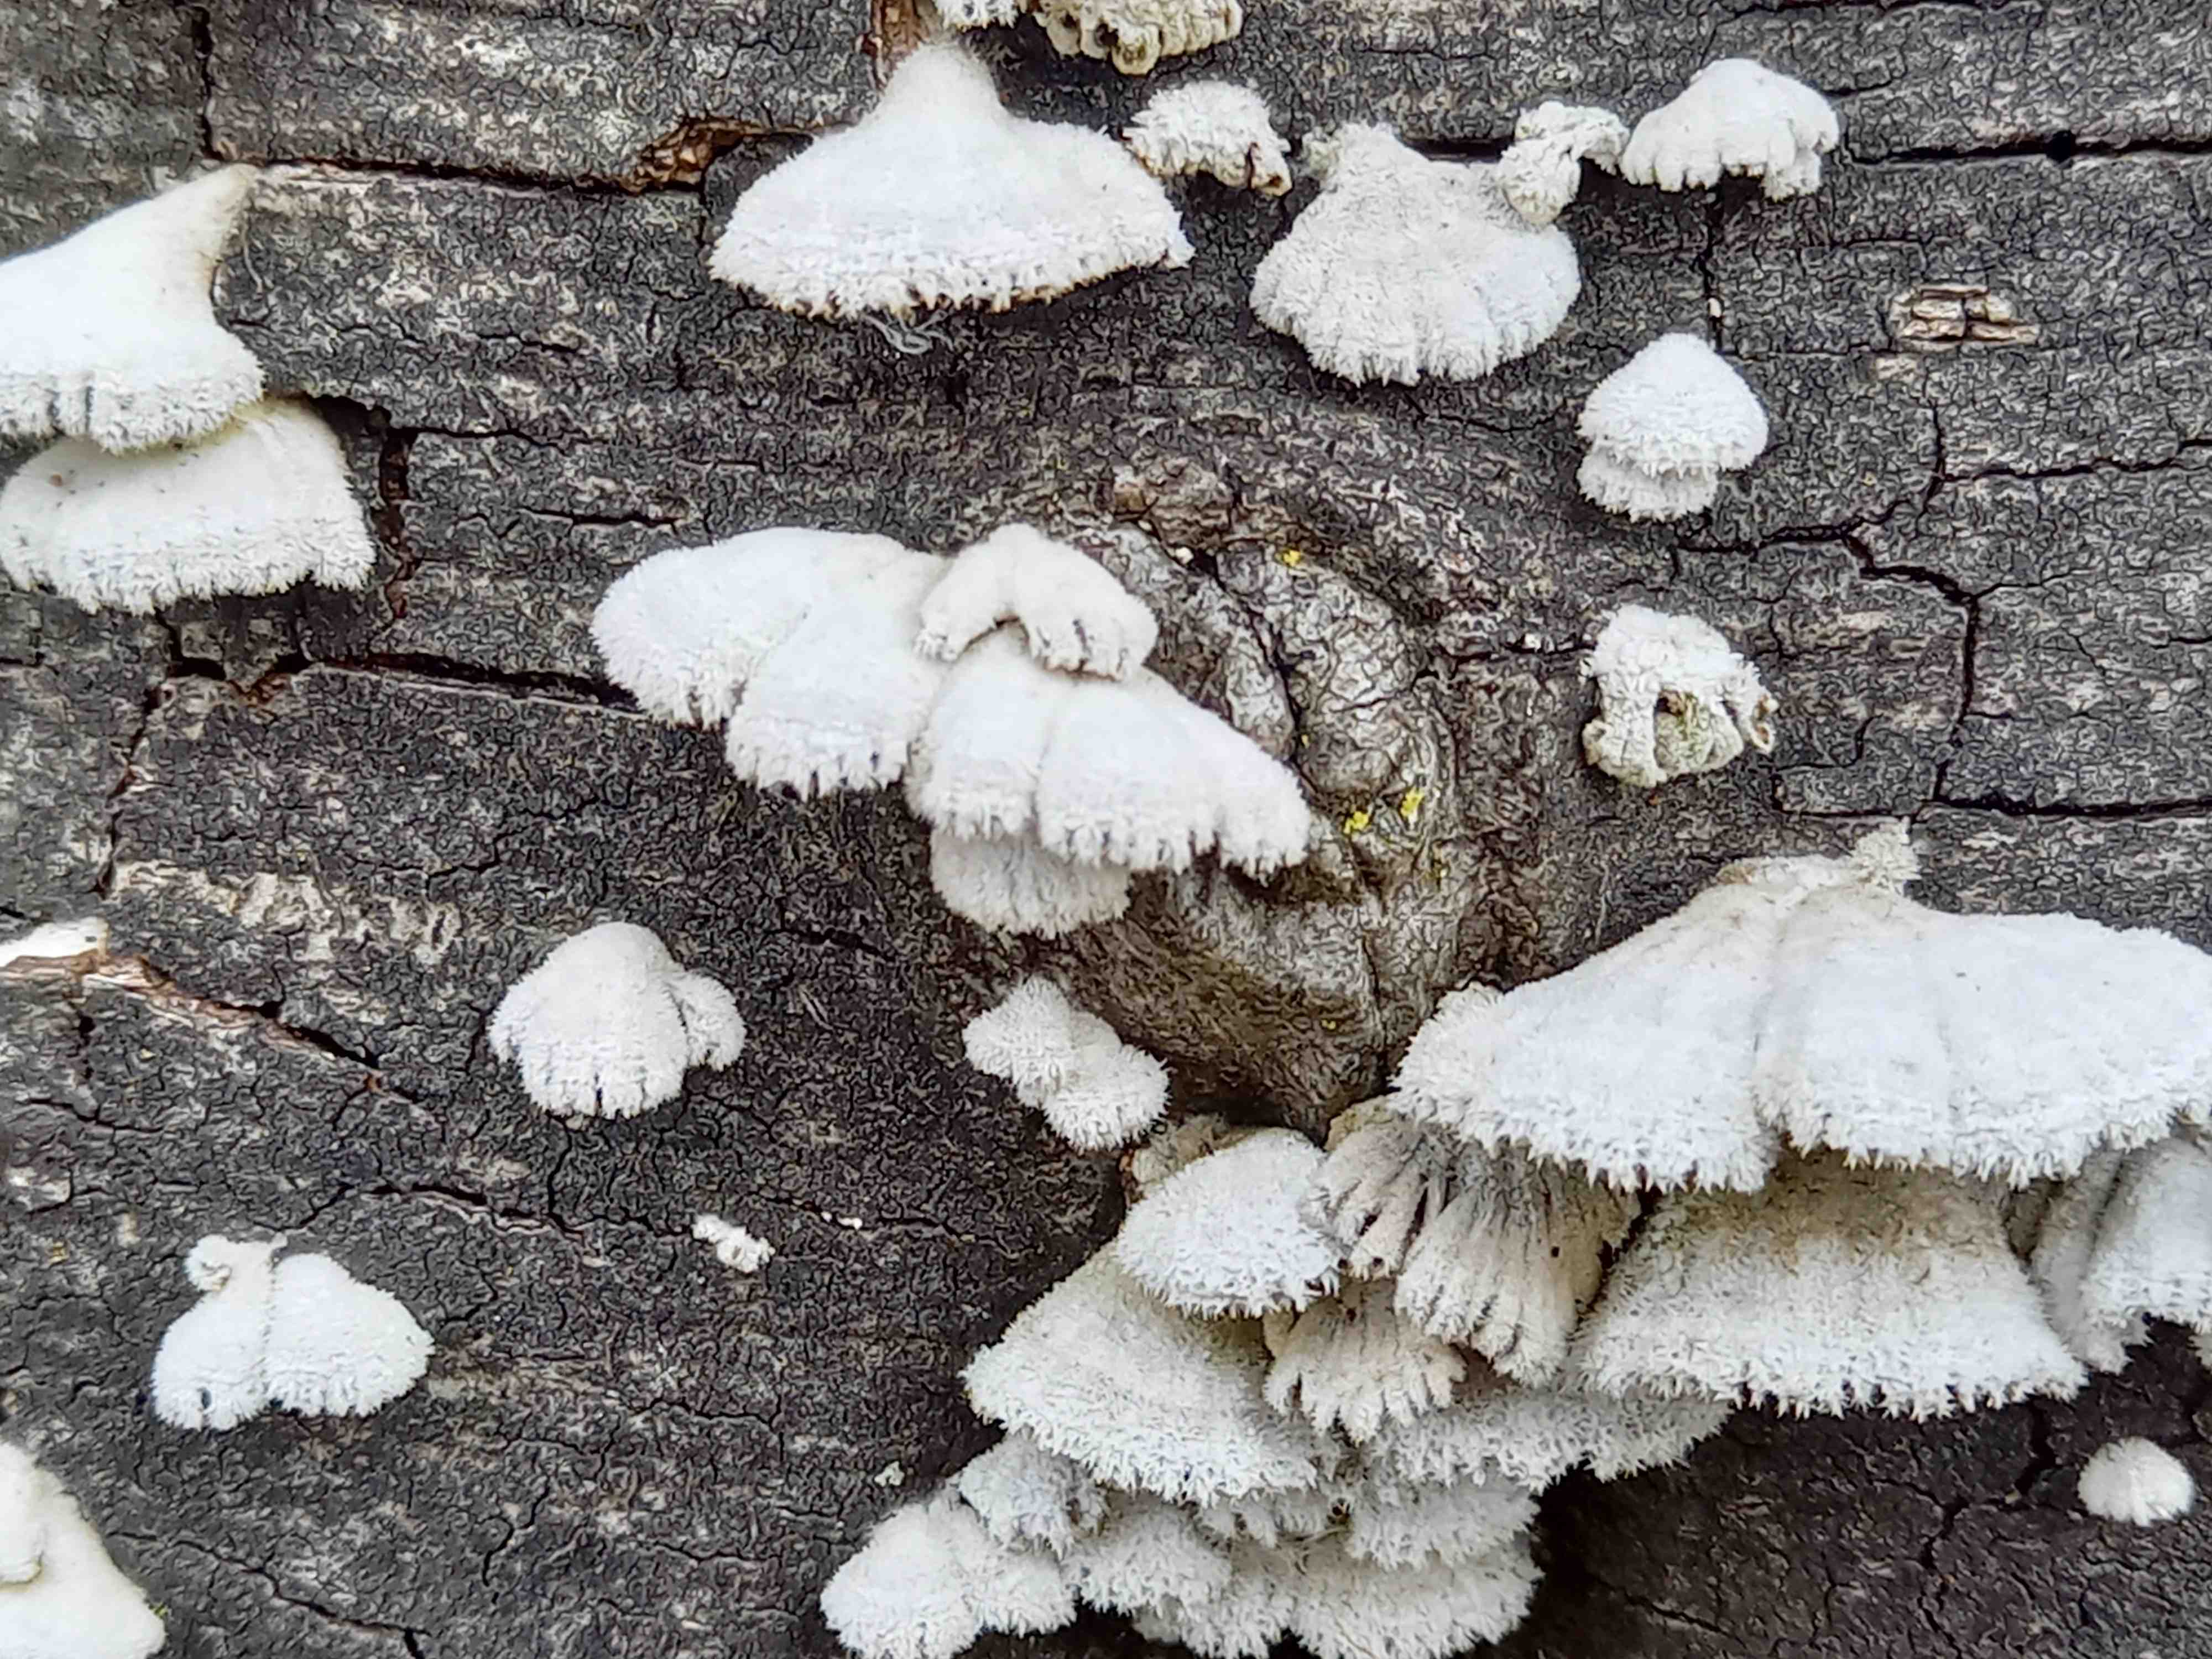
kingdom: Fungi
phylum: Basidiomycota
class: Agaricomycetes
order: Agaricales
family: Schizophyllaceae
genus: Schizophyllum
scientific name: Schizophyllum commune
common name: kløvblad
